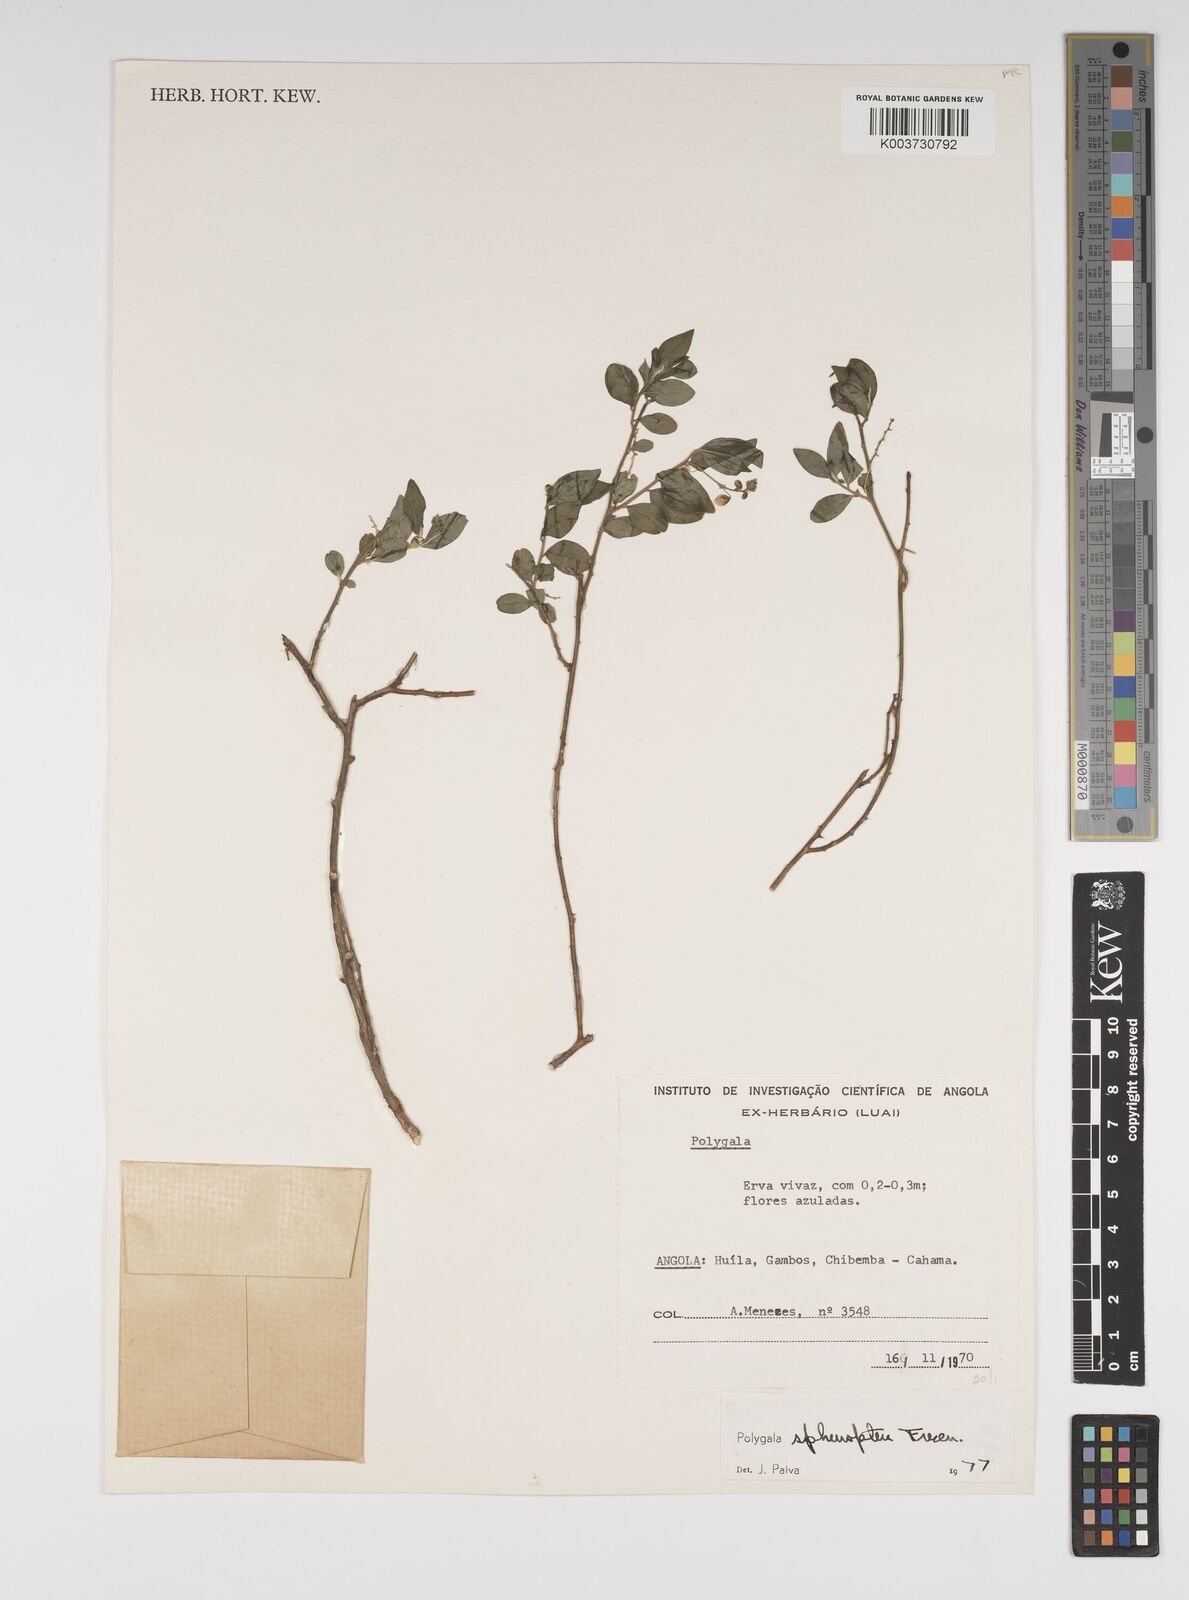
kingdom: Plantae
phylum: Tracheophyta
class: Magnoliopsida
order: Fabales
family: Polygalaceae
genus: Polygala
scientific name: Polygala sphenoptera
